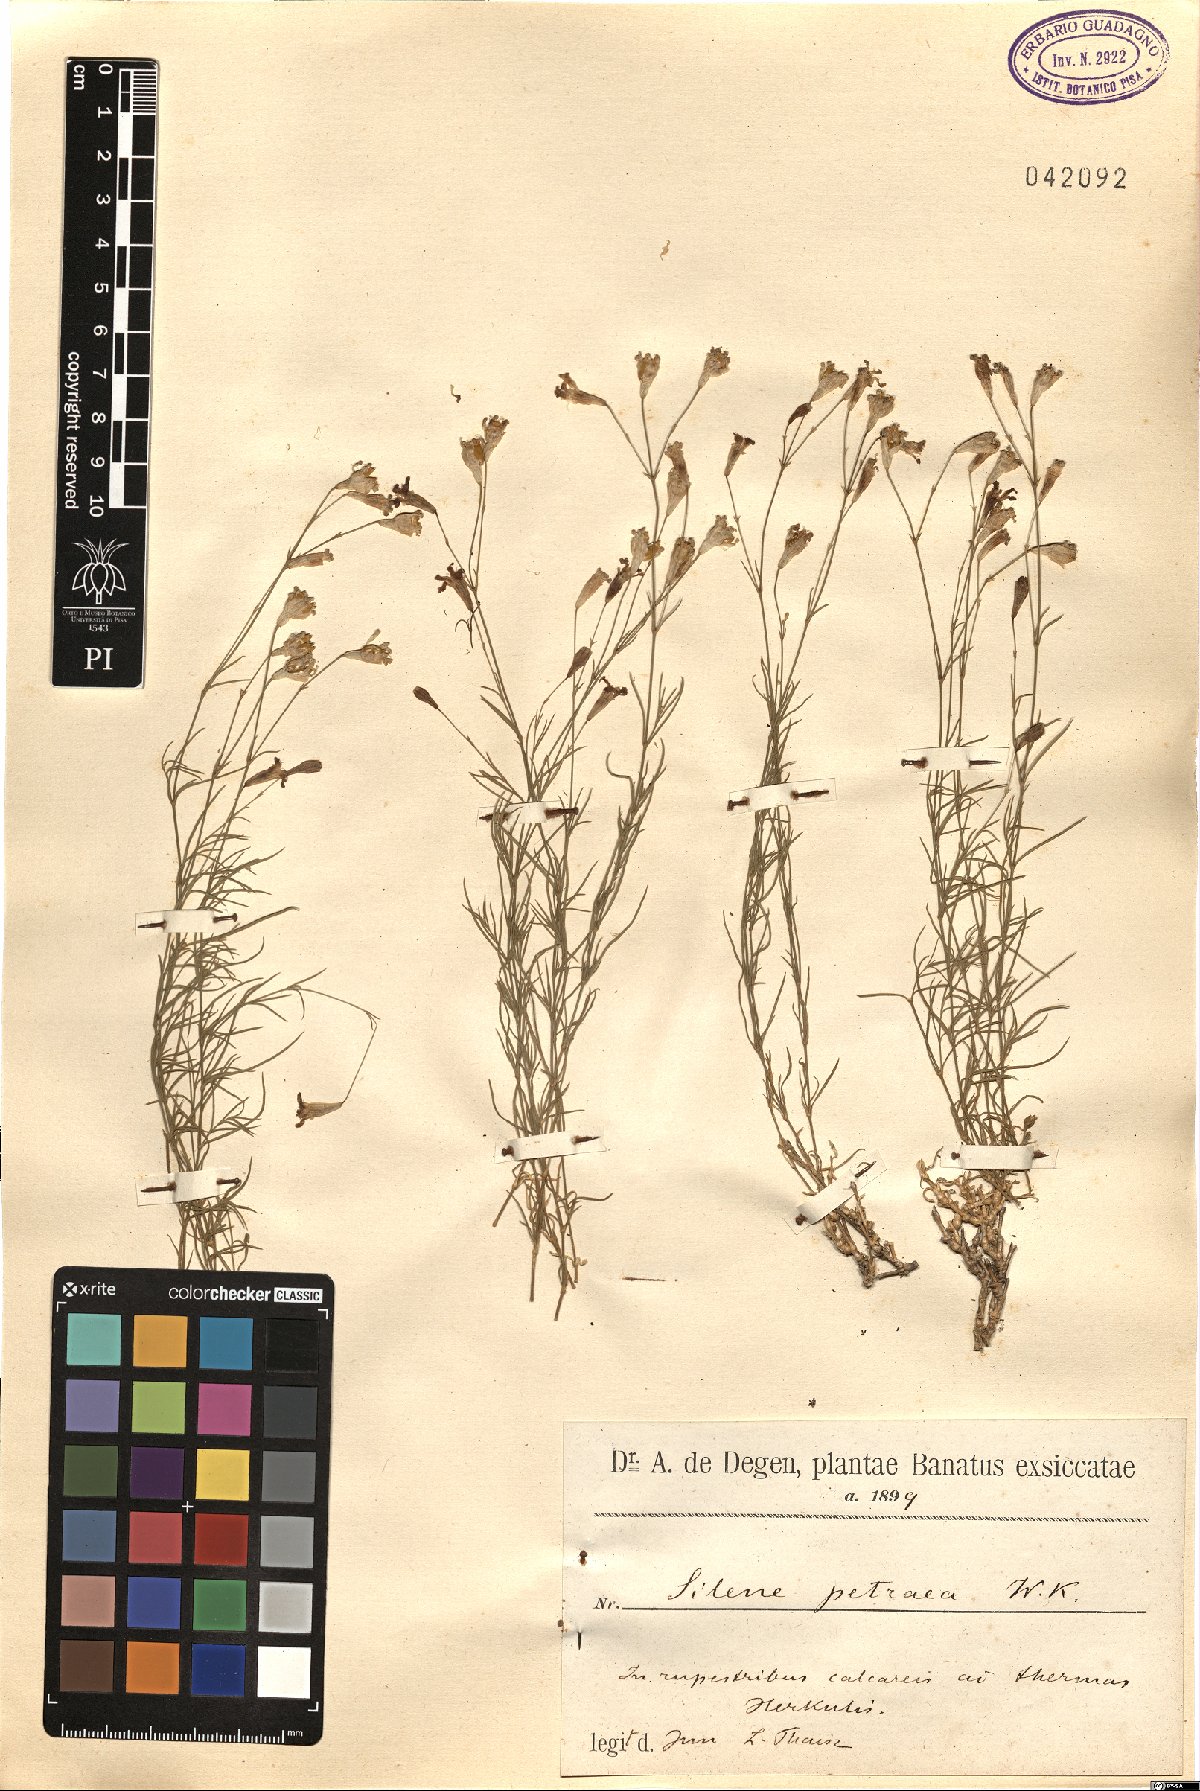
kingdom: Plantae
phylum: Tracheophyta
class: Magnoliopsida
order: Caryophyllales
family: Caryophyllaceae
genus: Silene
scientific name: Silene saxifraga
